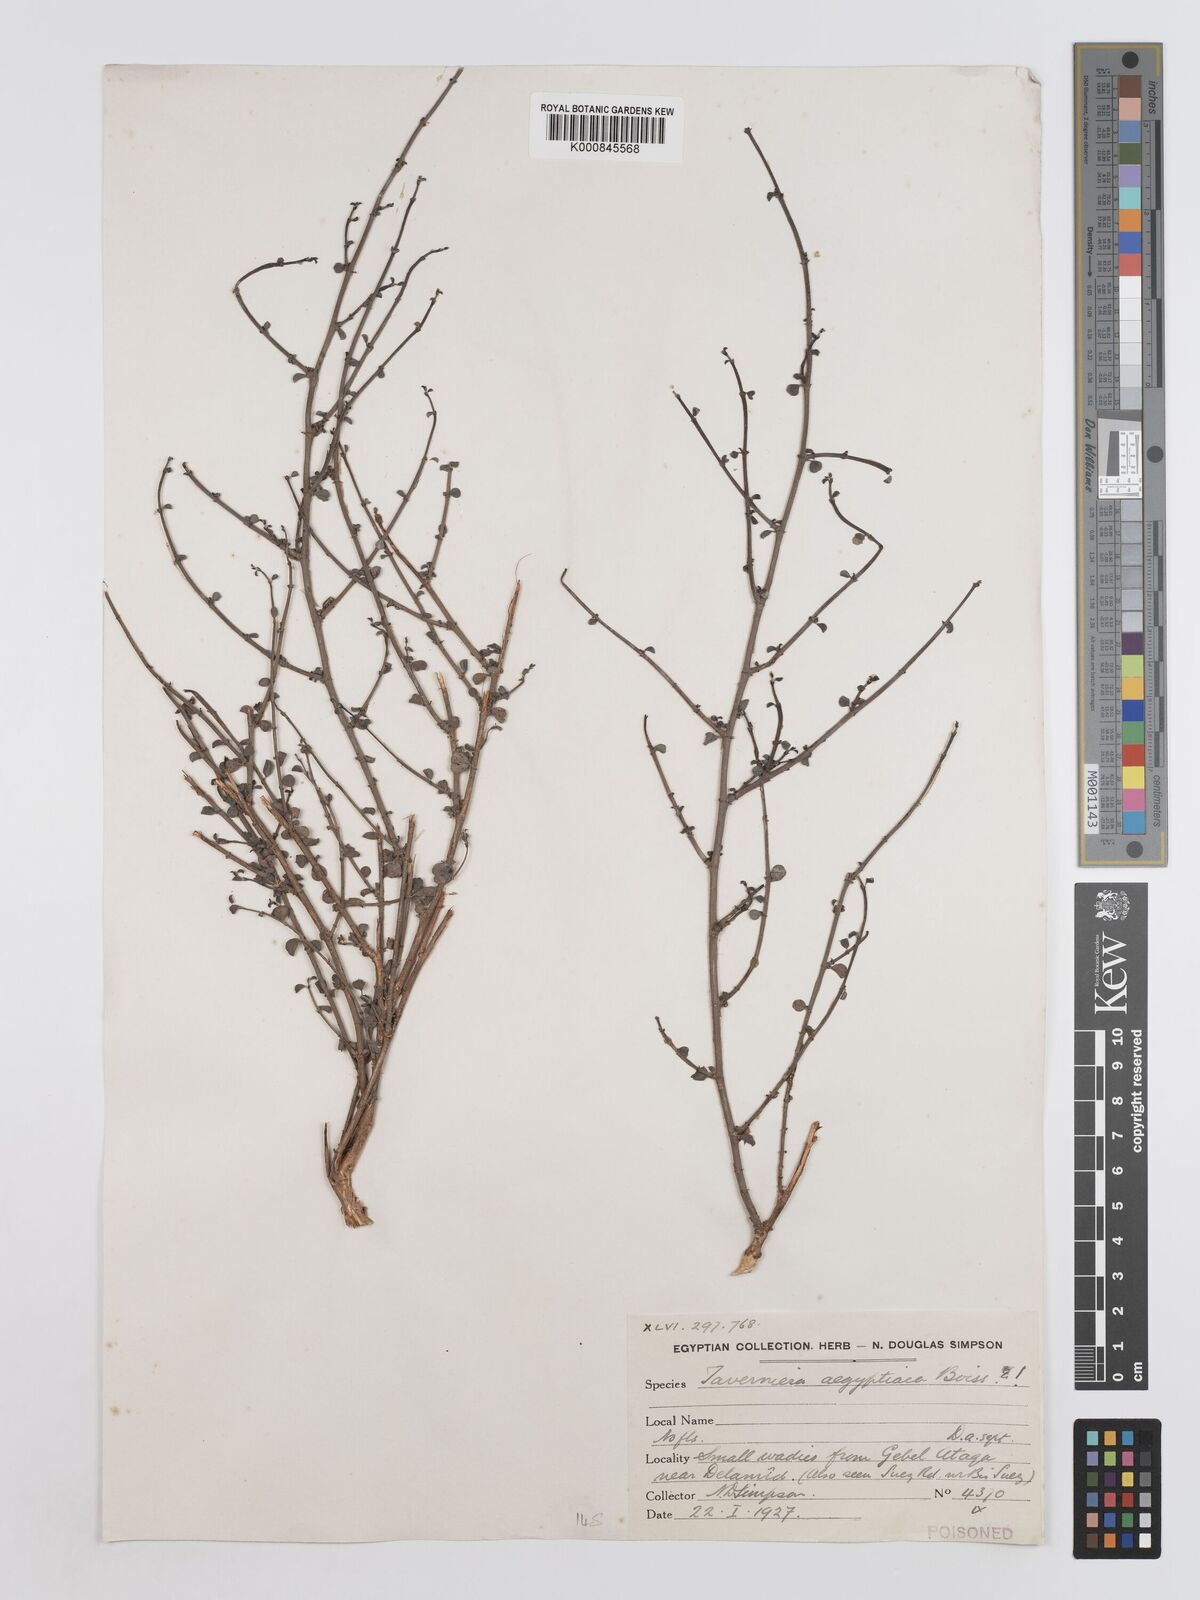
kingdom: Plantae
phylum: Tracheophyta
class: Magnoliopsida
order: Fabales
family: Fabaceae
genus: Taverniera
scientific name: Taverniera aegyptiaca
